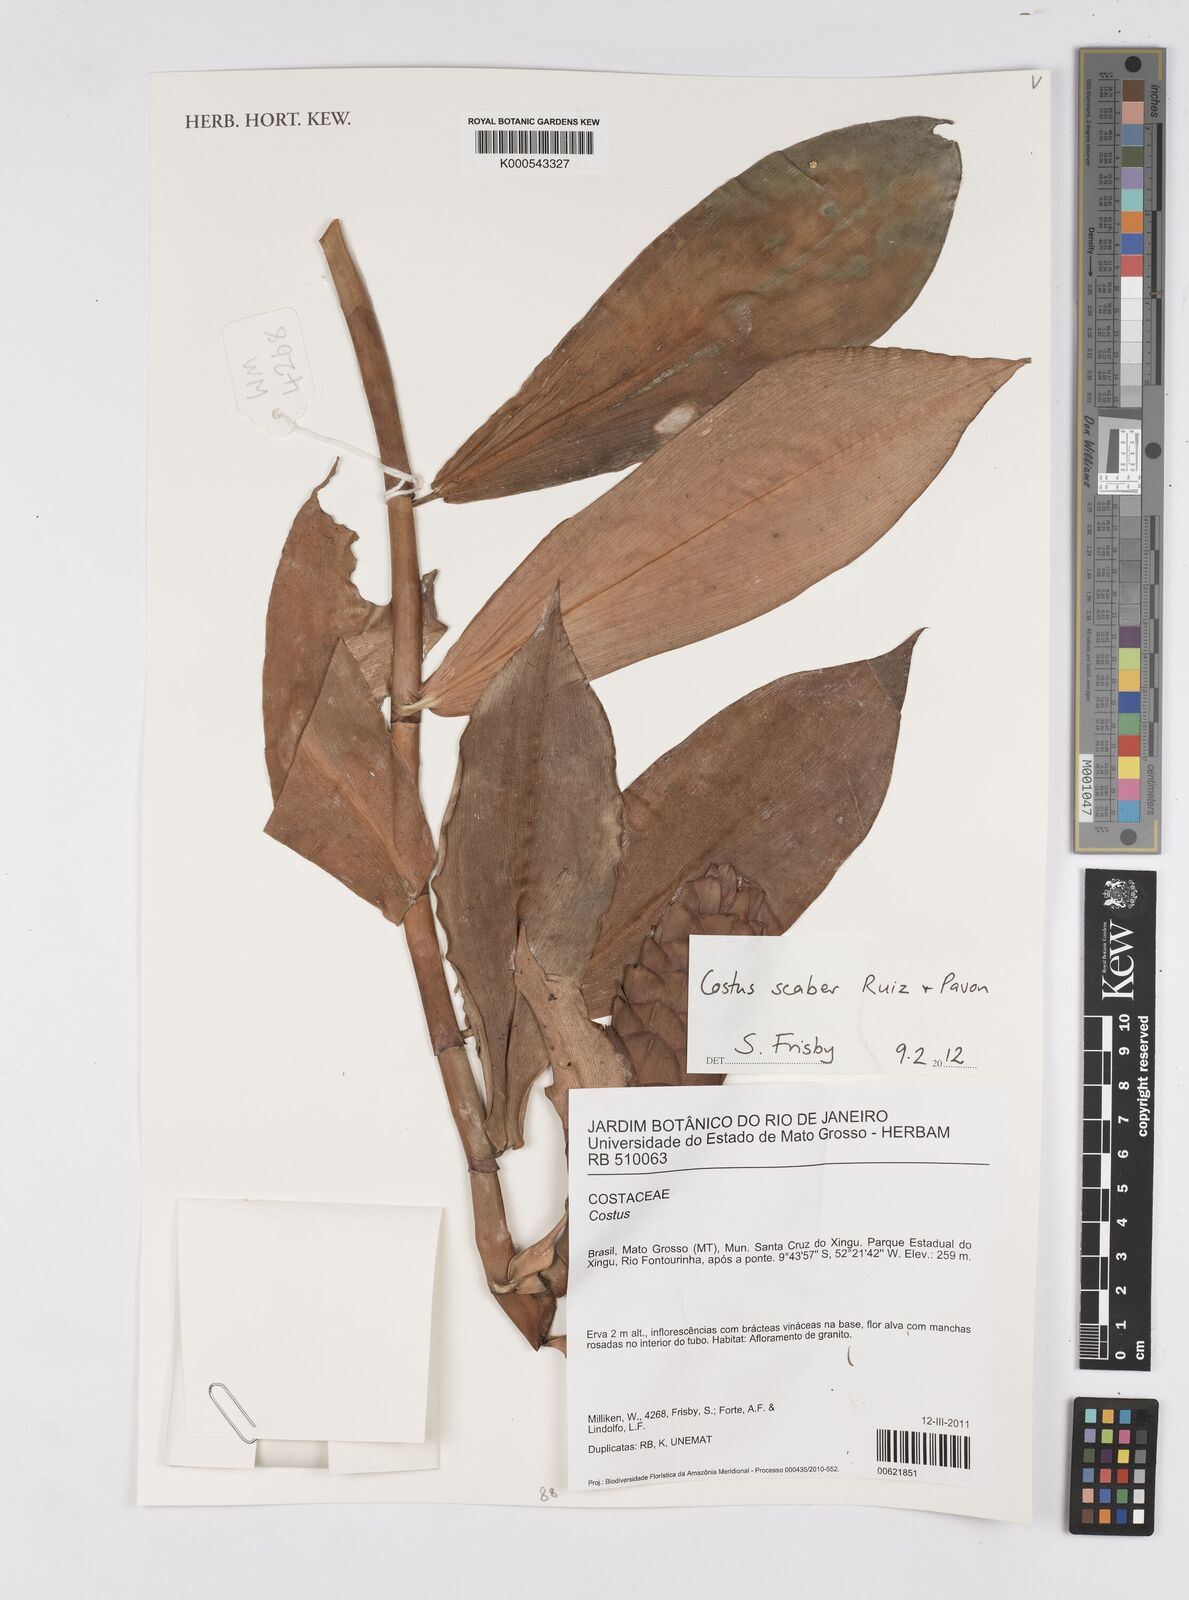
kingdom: Plantae
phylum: Tracheophyta
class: Liliopsida
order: Zingiberales
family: Costaceae
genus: Costus
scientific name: Costus scaber
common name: Spiral head ginger
